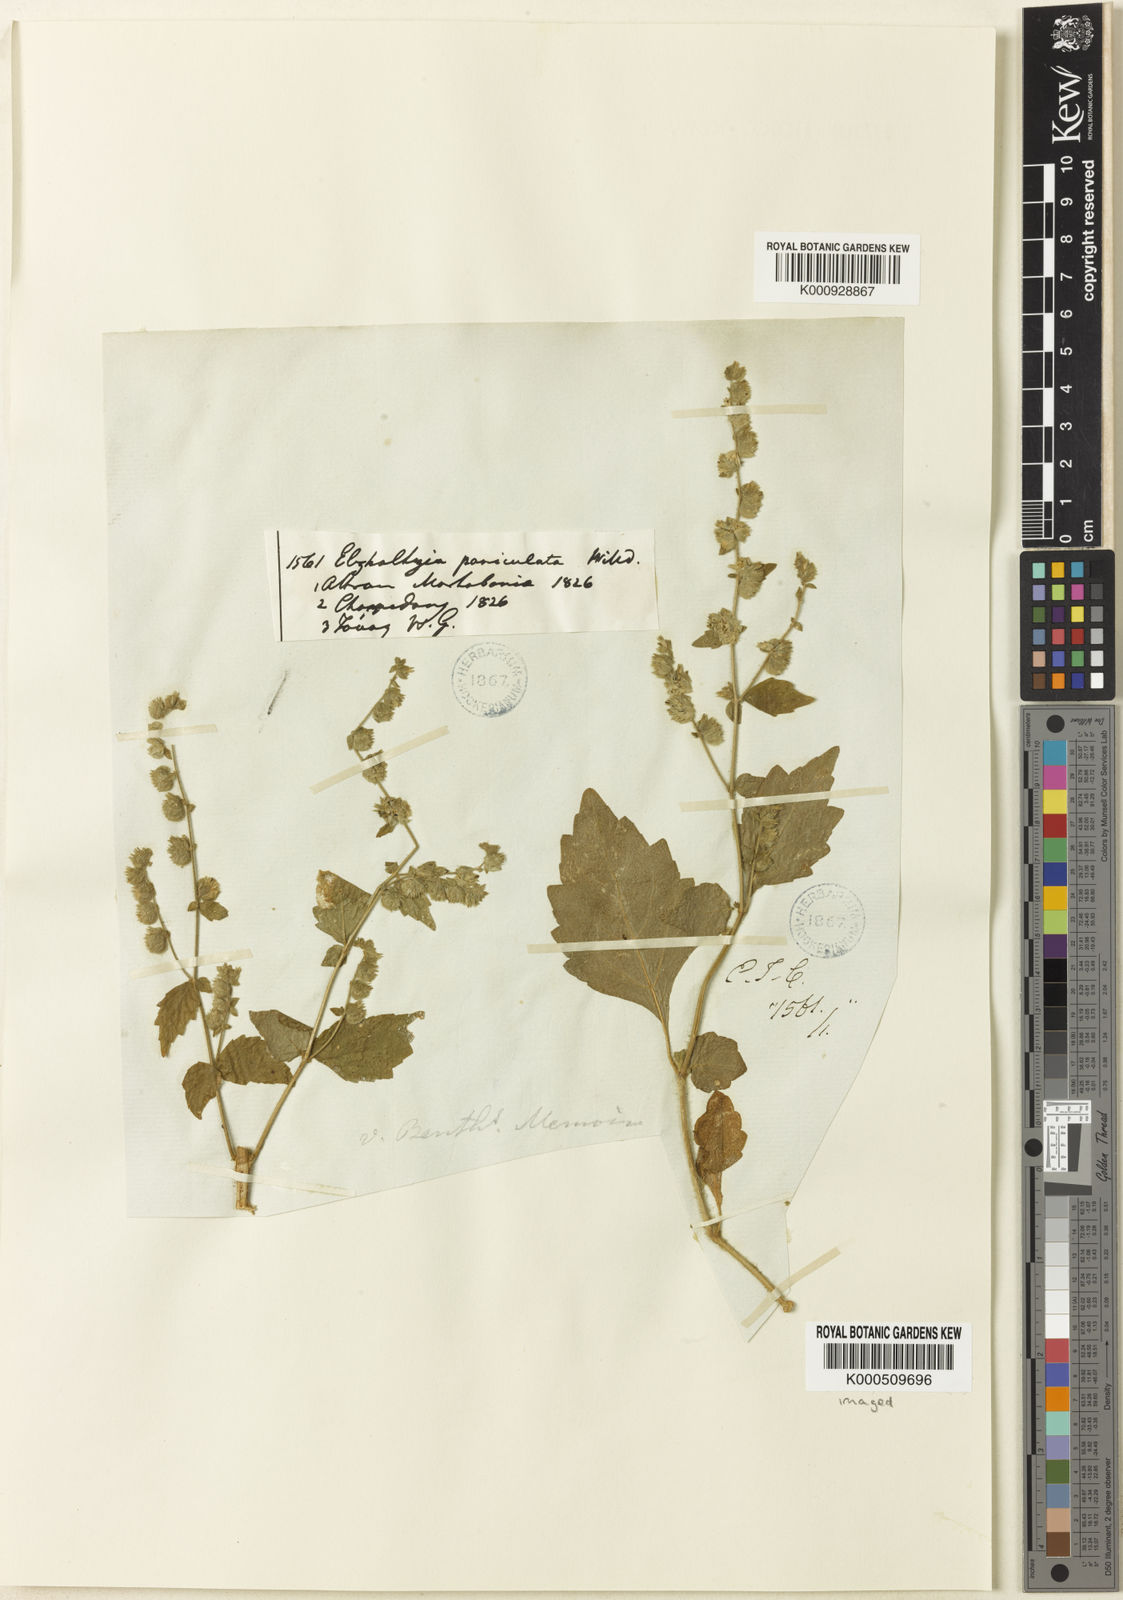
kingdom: Plantae
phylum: Tracheophyta
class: Magnoliopsida
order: Lamiales
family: Lamiaceae
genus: Pogostemon
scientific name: Pogostemon paniculatus
